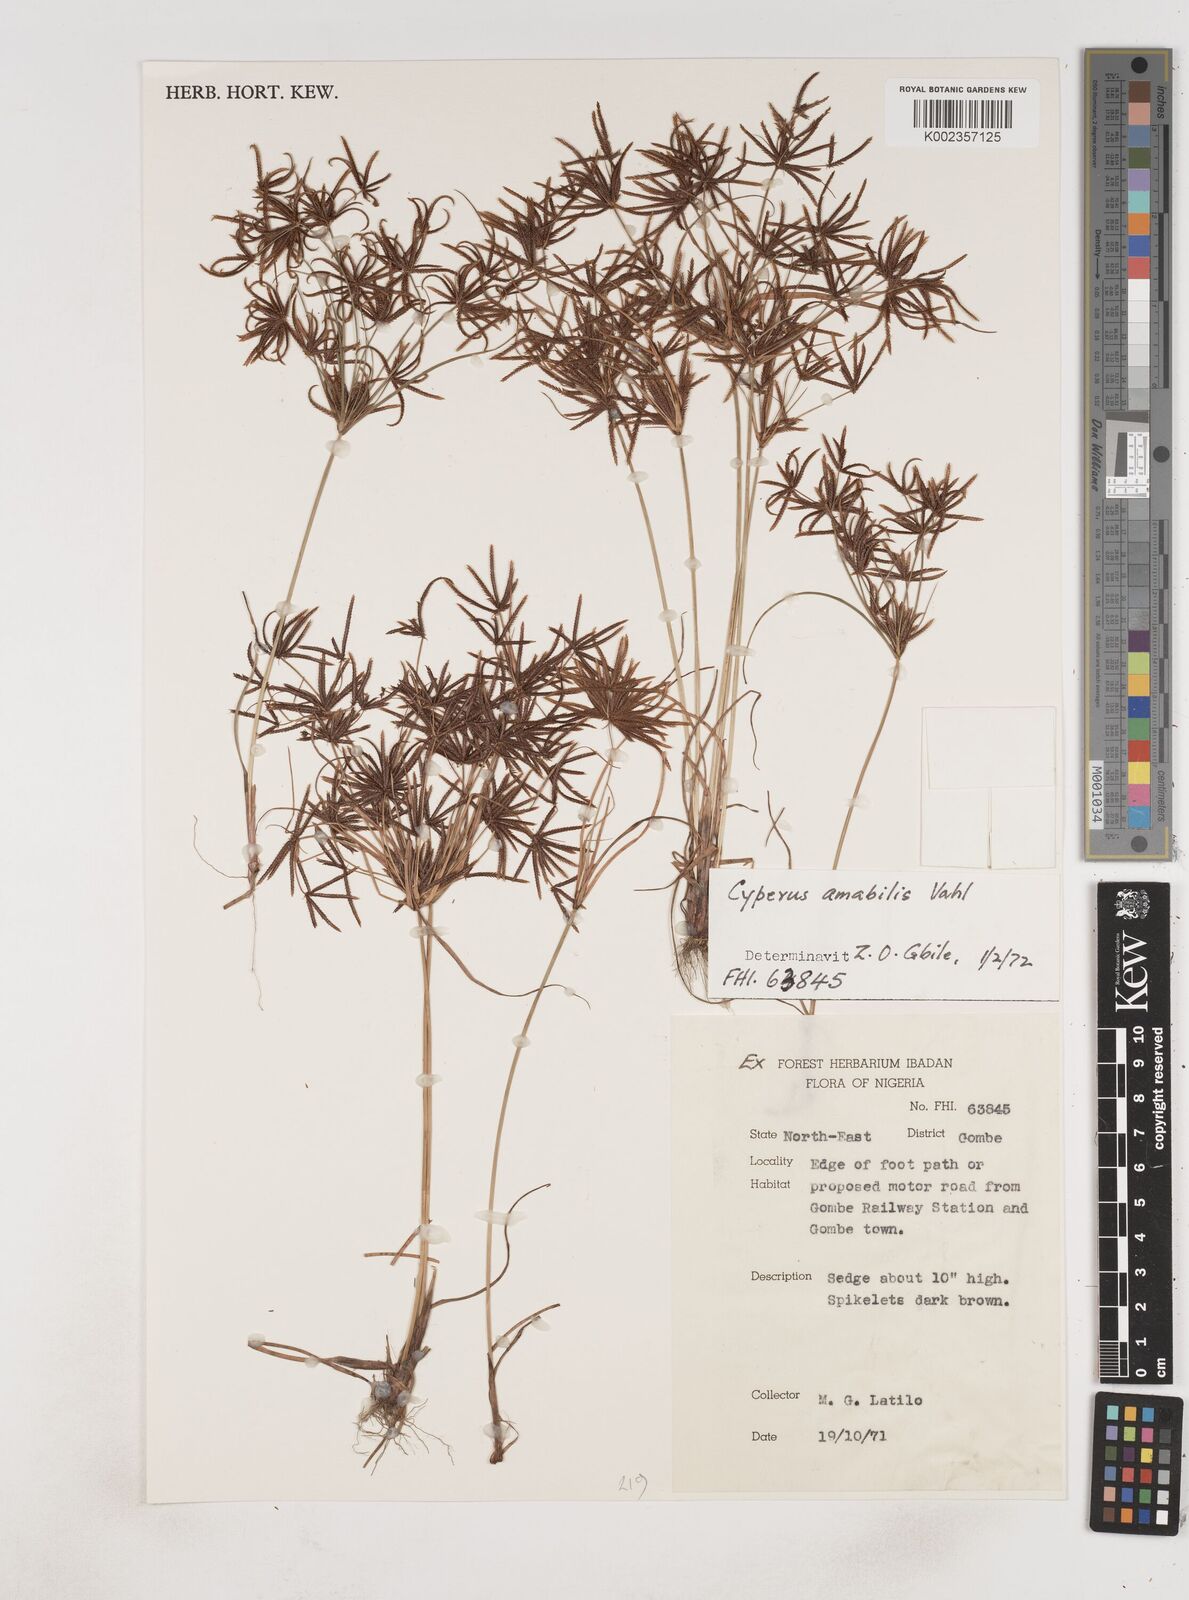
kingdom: Plantae
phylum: Tracheophyta
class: Liliopsida
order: Poales
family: Cyperaceae
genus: Cyperus
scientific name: Cyperus amabilis
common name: Foothill flat sedge
